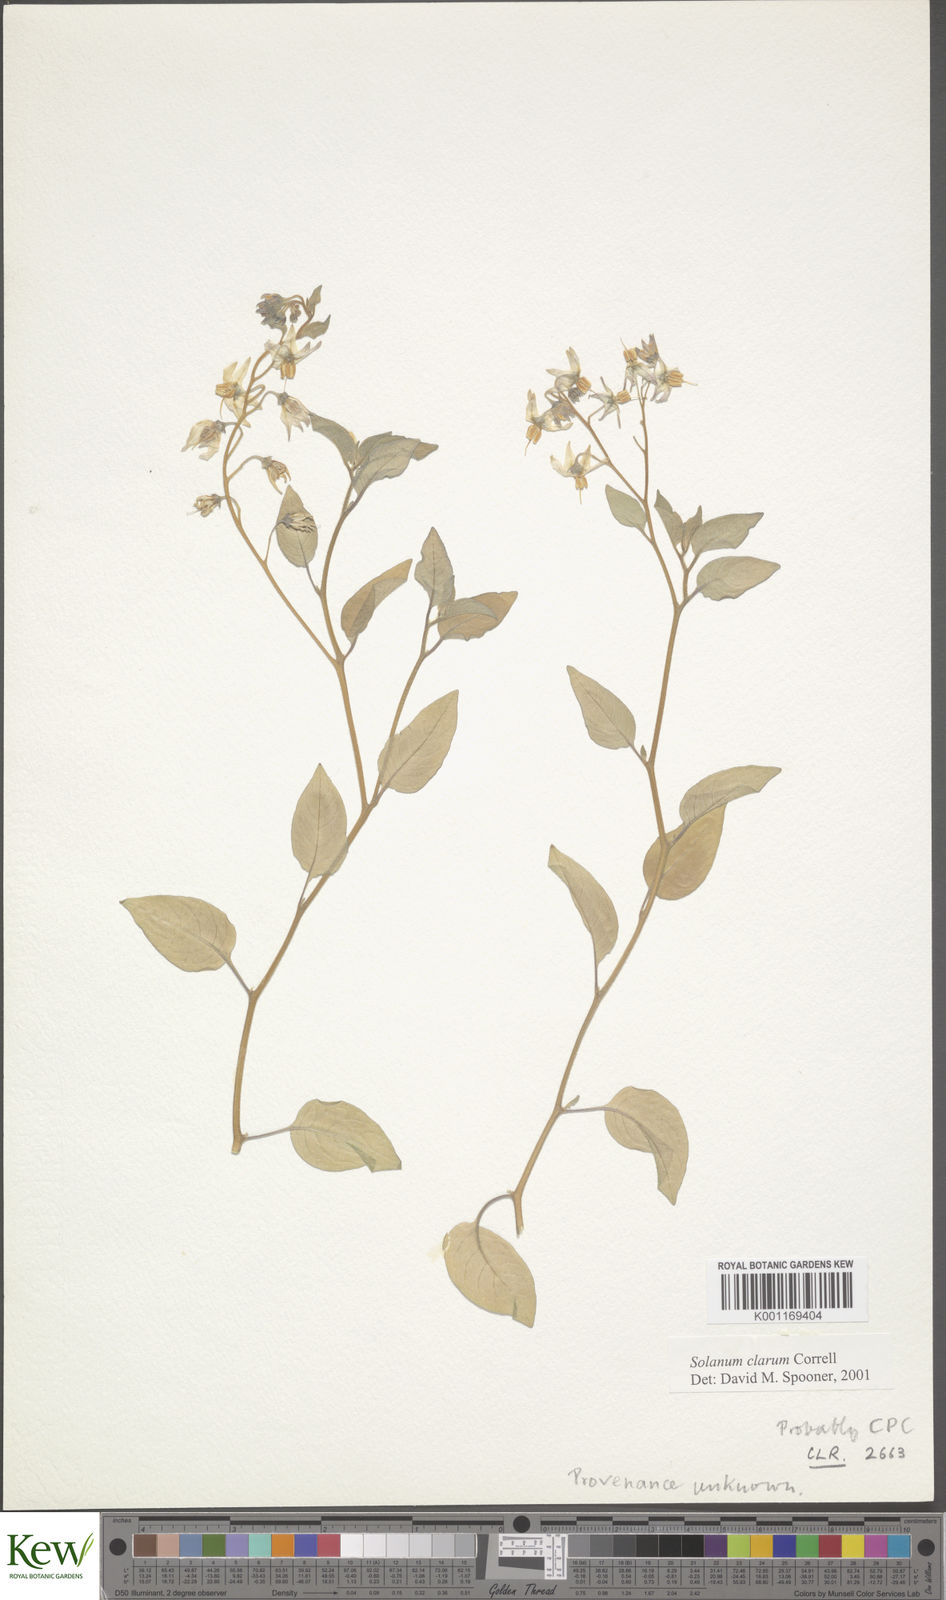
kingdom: Plantae
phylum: Tracheophyta
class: Magnoliopsida
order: Solanales
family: Solanaceae
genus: Solanum
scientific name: Solanum clarum
